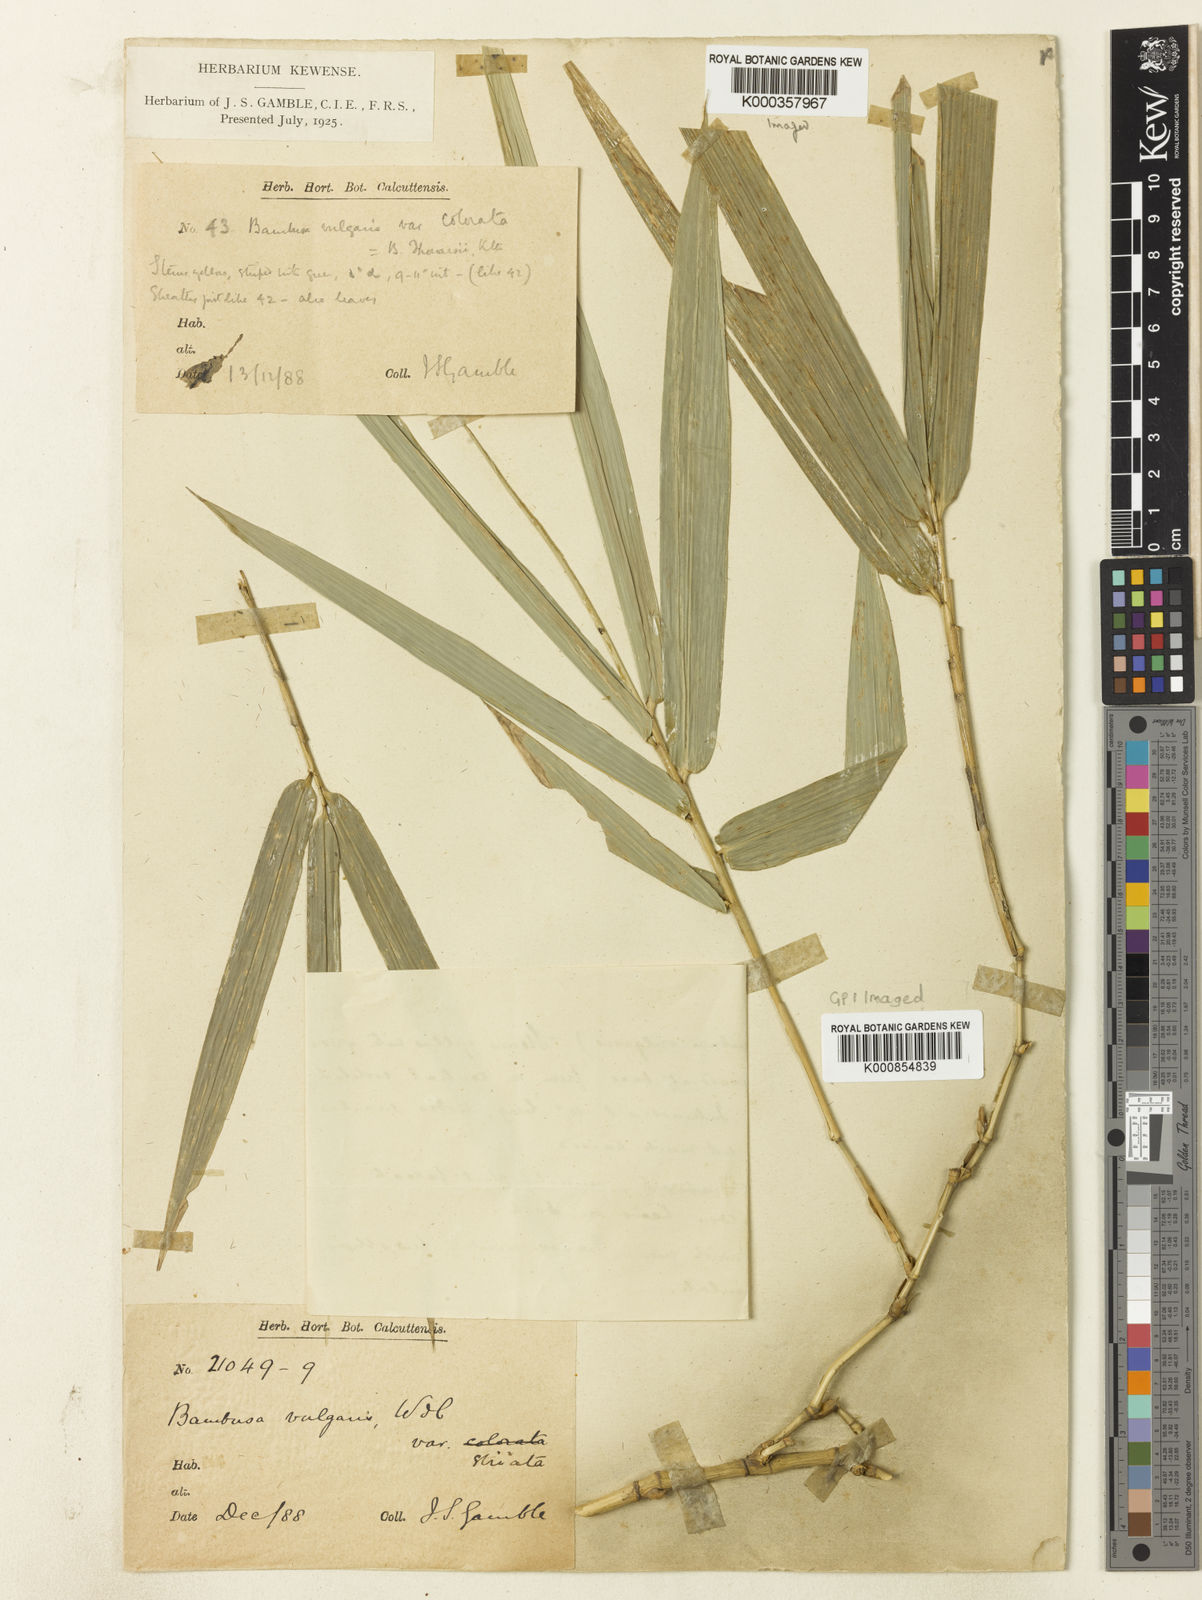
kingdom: Plantae
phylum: Tracheophyta
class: Liliopsida
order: Poales
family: Poaceae
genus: Bambusa
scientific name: Bambusa
